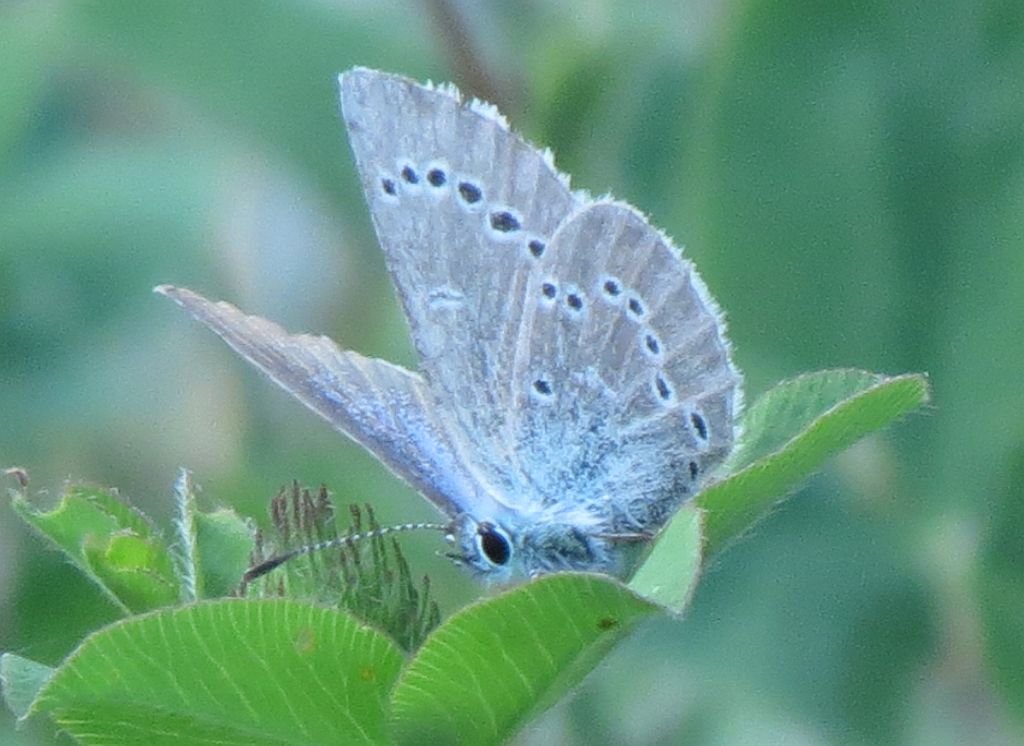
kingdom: Animalia
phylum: Arthropoda
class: Insecta
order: Lepidoptera
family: Lycaenidae
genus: Glaucopsyche
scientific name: Glaucopsyche lygdamus
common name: Silvery Blue
